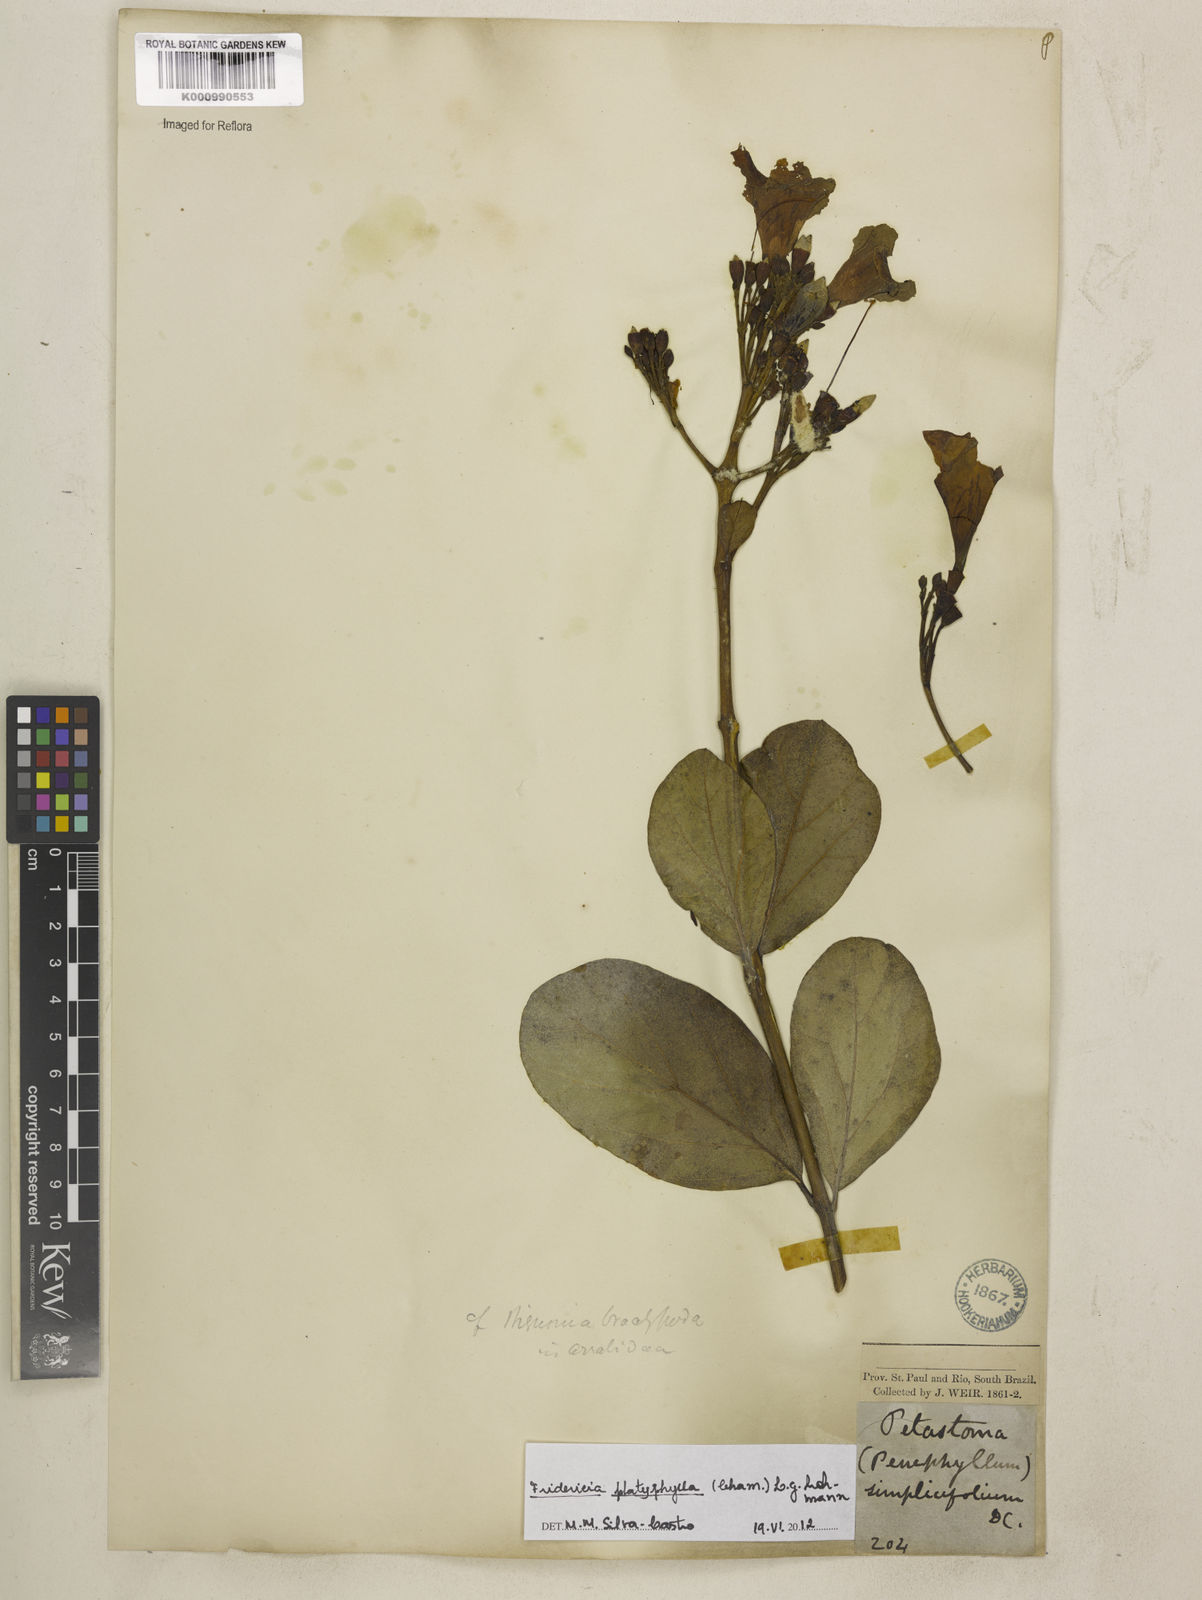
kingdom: Plantae
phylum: Tracheophyta
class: Magnoliopsida
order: Lamiales
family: Bignoniaceae
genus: Fridericia
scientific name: Fridericia platyphylla
